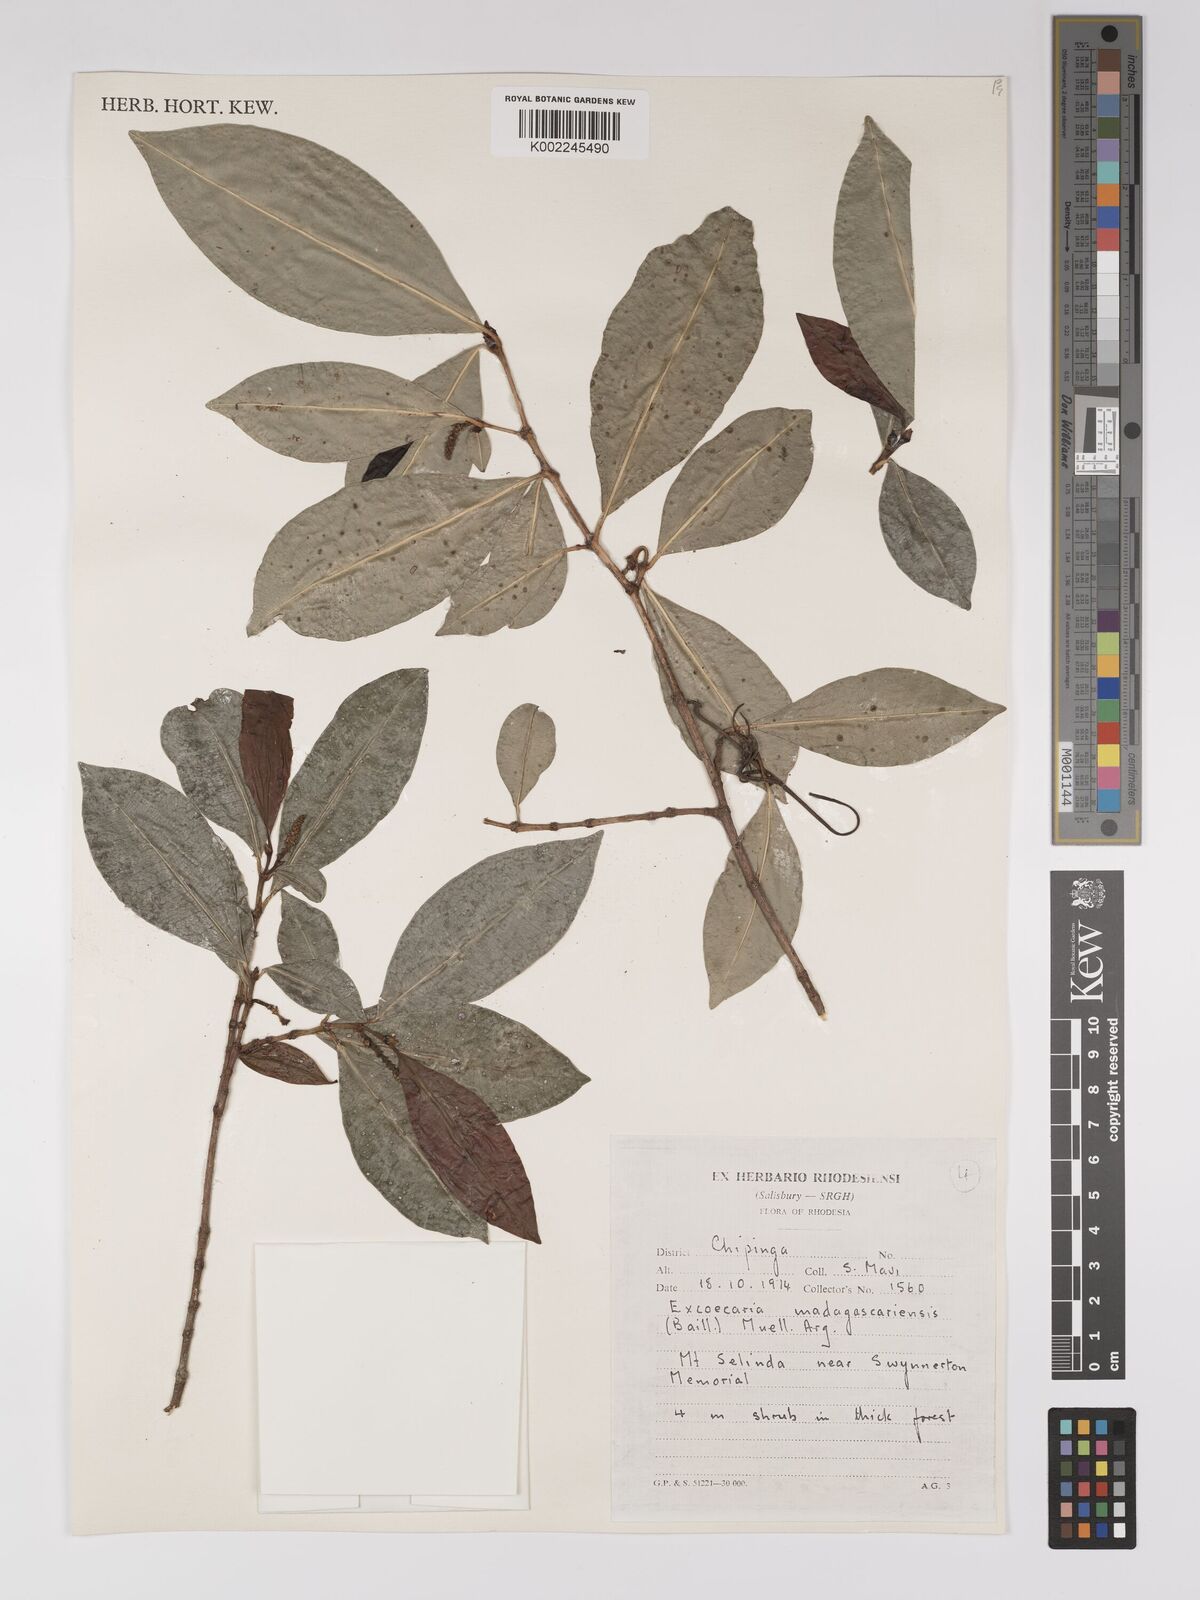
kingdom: Plantae
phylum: Tracheophyta
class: Magnoliopsida
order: Malpighiales
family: Euphorbiaceae
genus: Excoecaria
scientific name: Excoecaria madagascariensis
